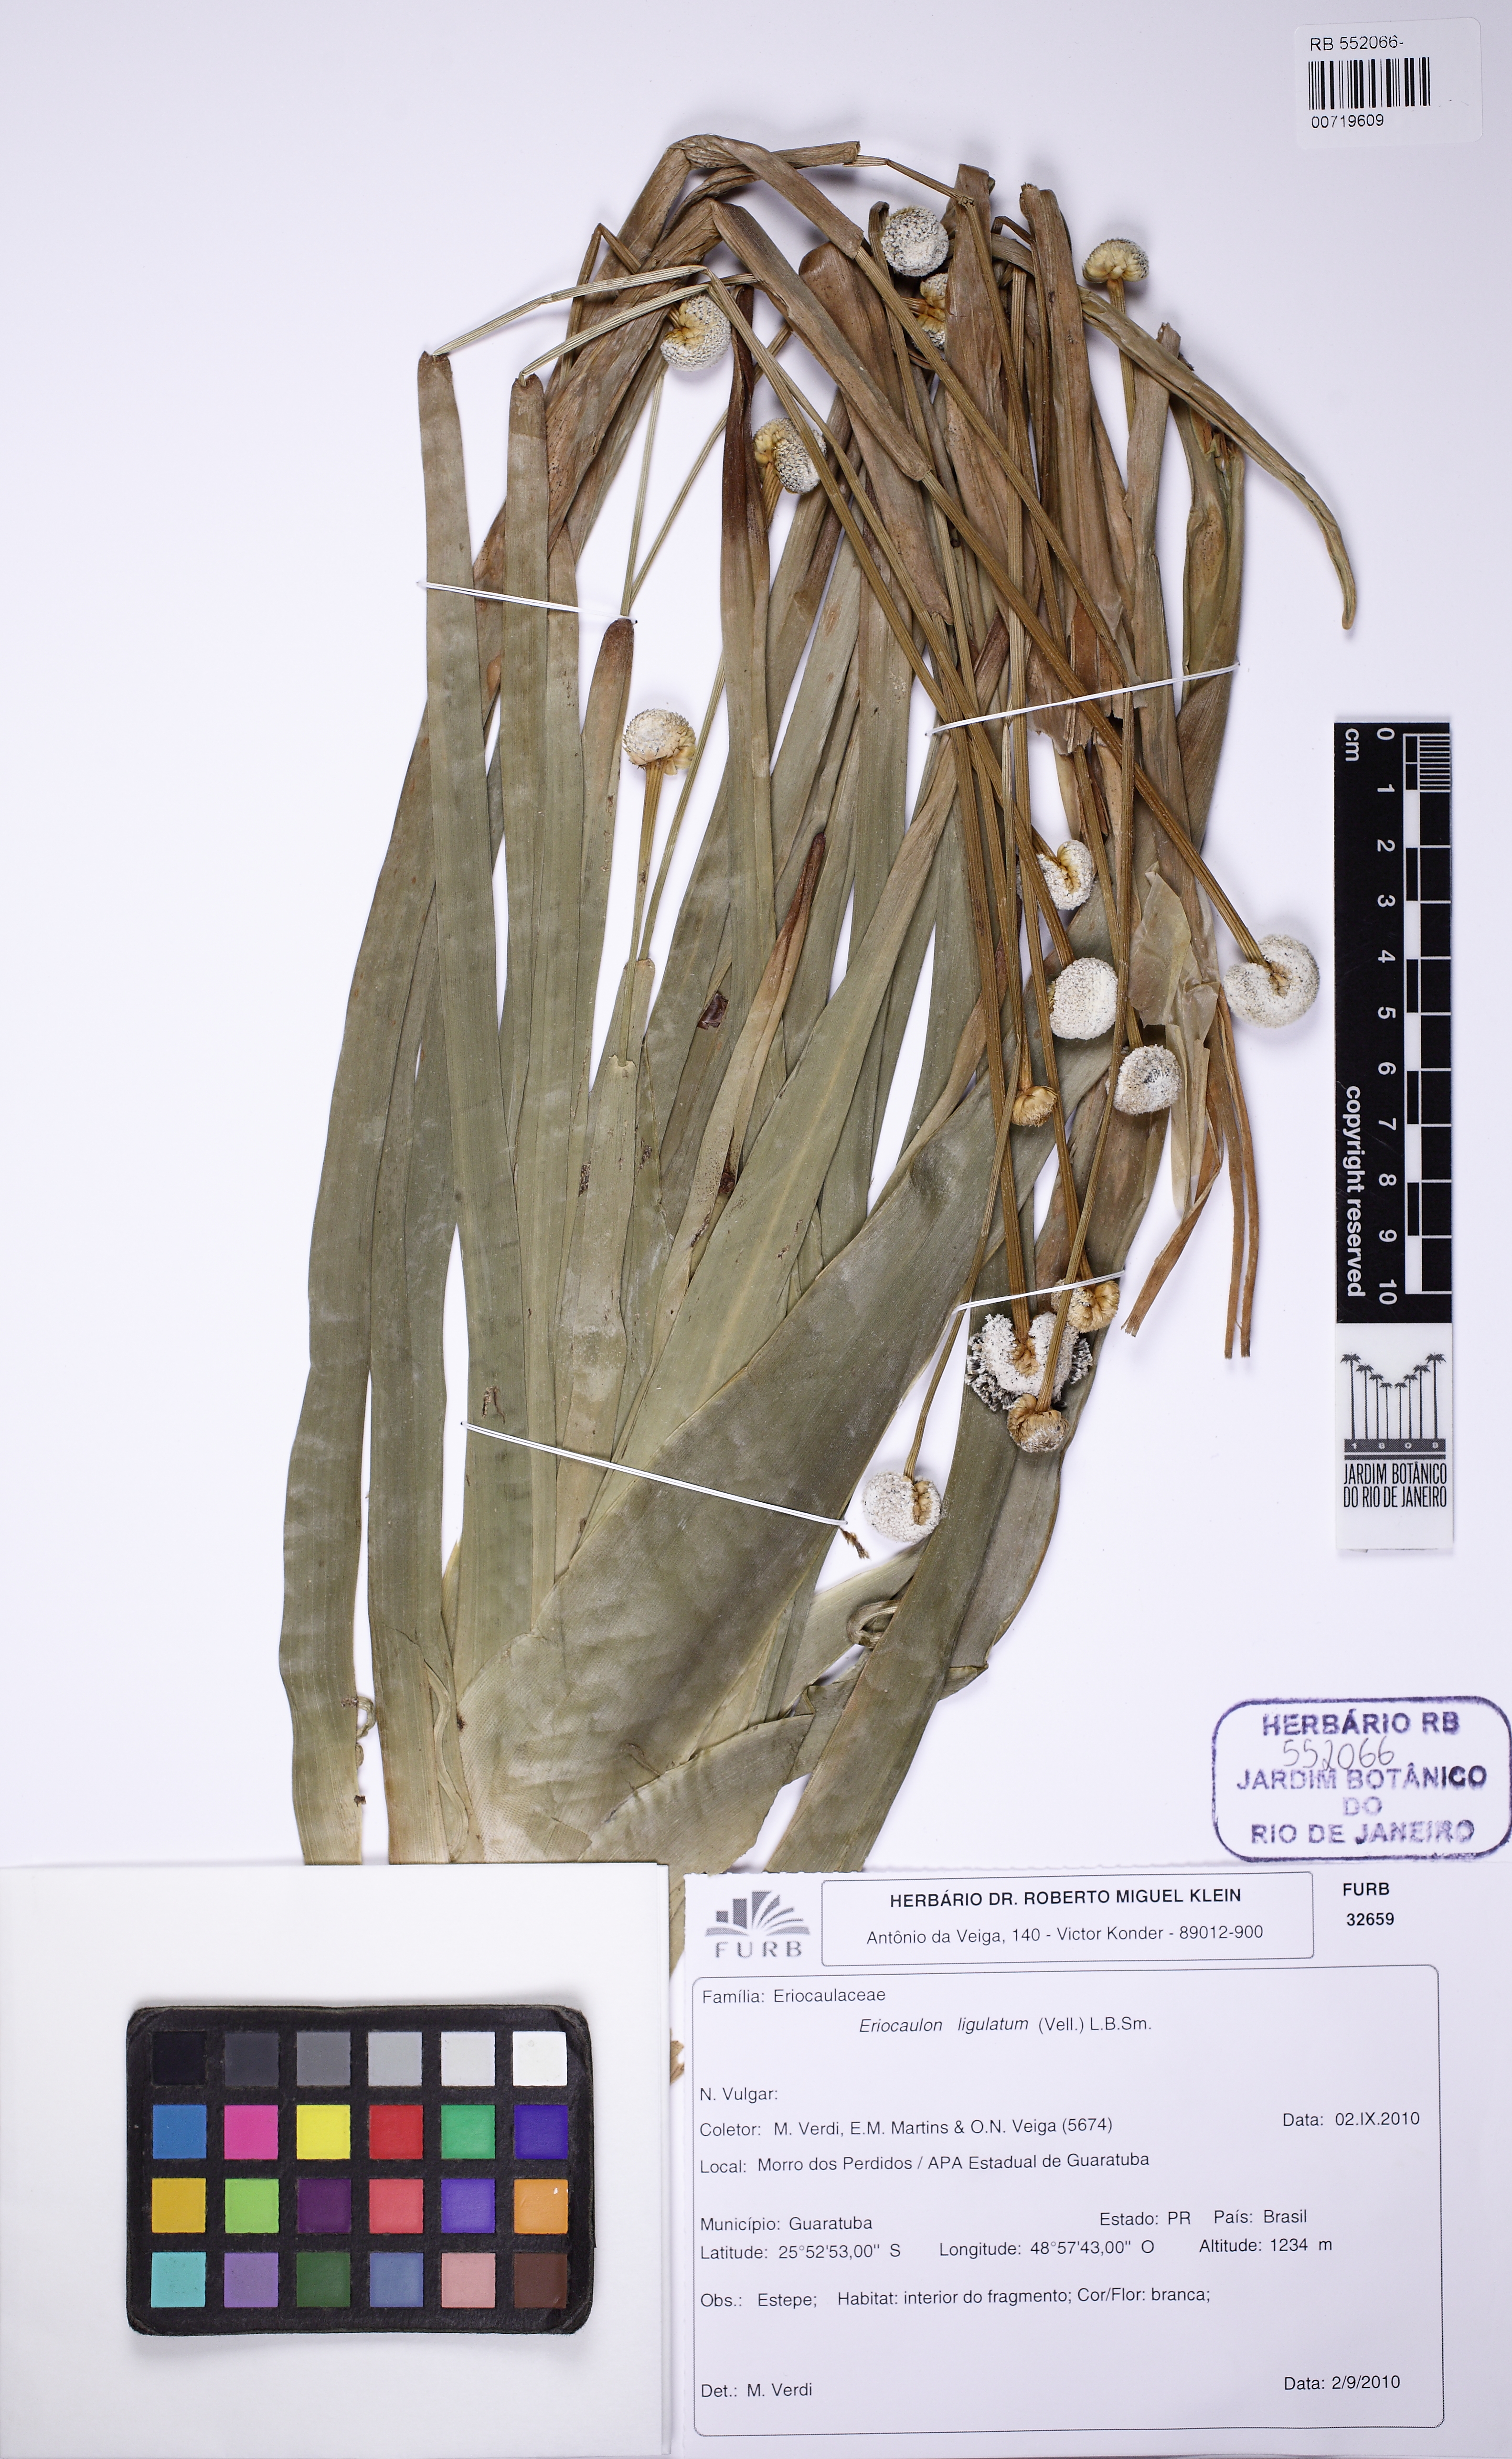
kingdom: Plantae
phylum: Tracheophyta
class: Liliopsida
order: Poales
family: Eriocaulaceae
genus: Eriocaulon
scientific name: Eriocaulon ligulatum
